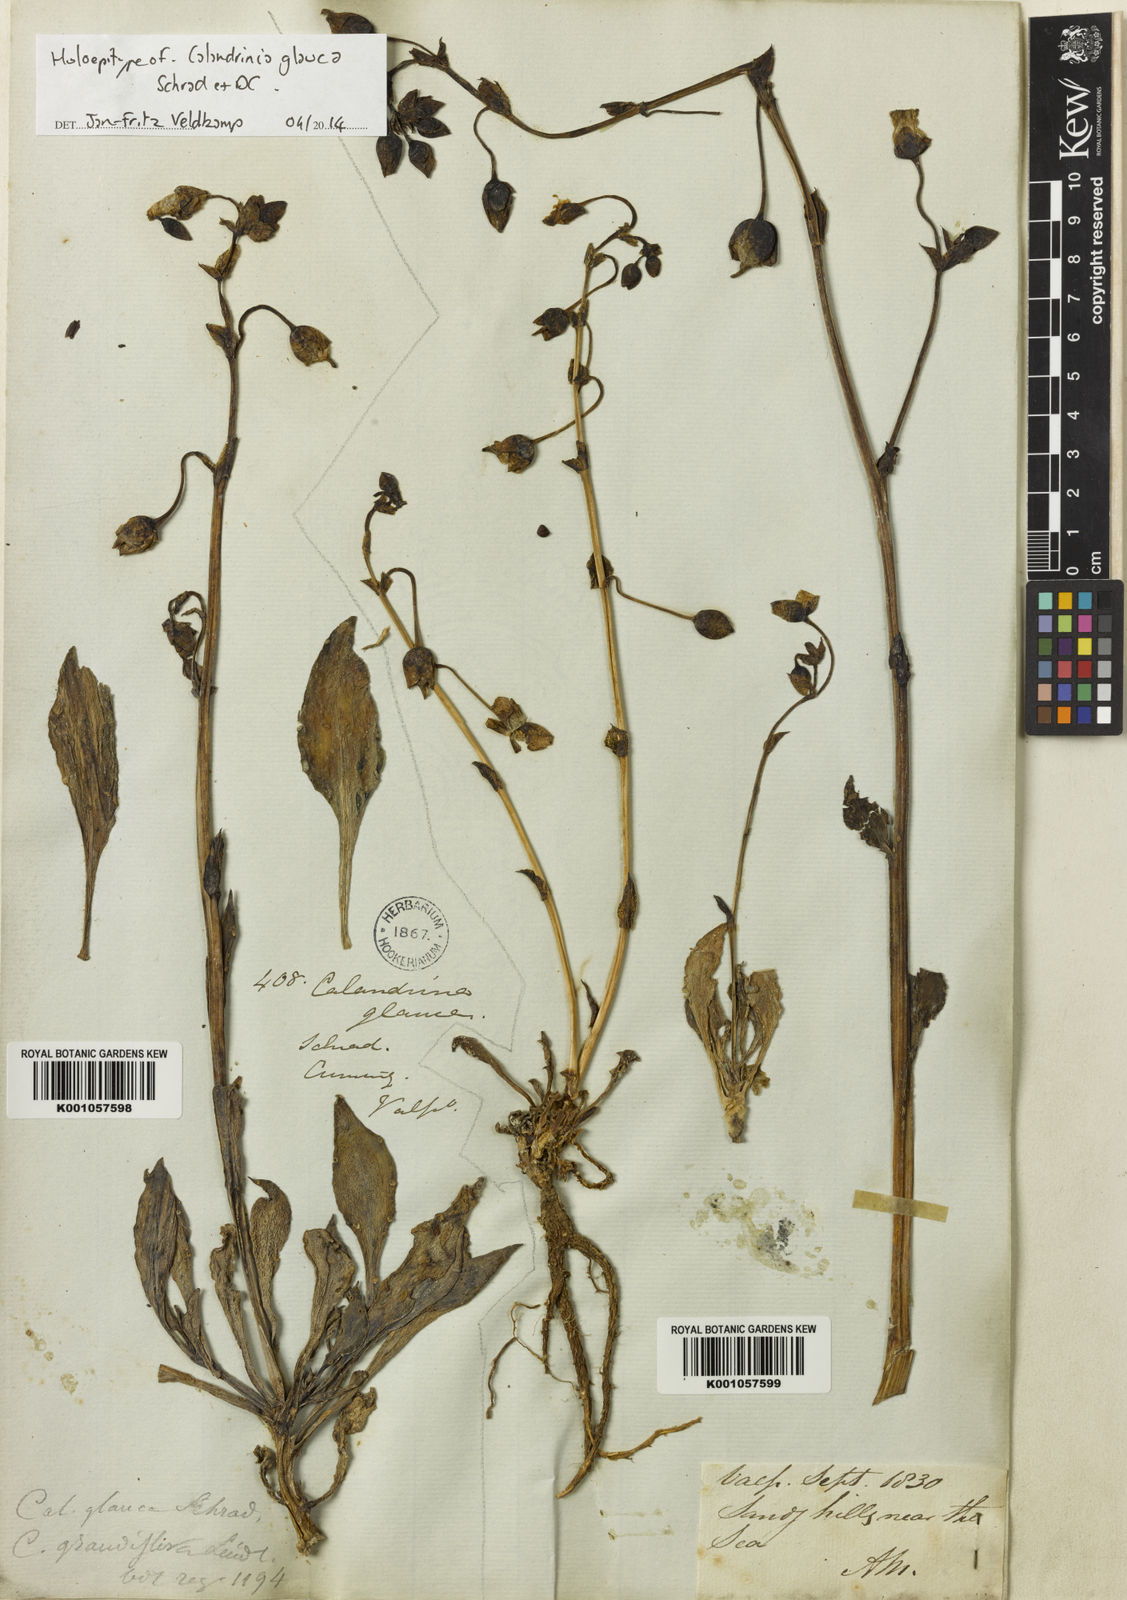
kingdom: Plantae
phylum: Tracheophyta
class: Magnoliopsida
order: Caryophyllales
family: Montiaceae
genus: Cistanthe
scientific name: Cistanthe grandiflora
